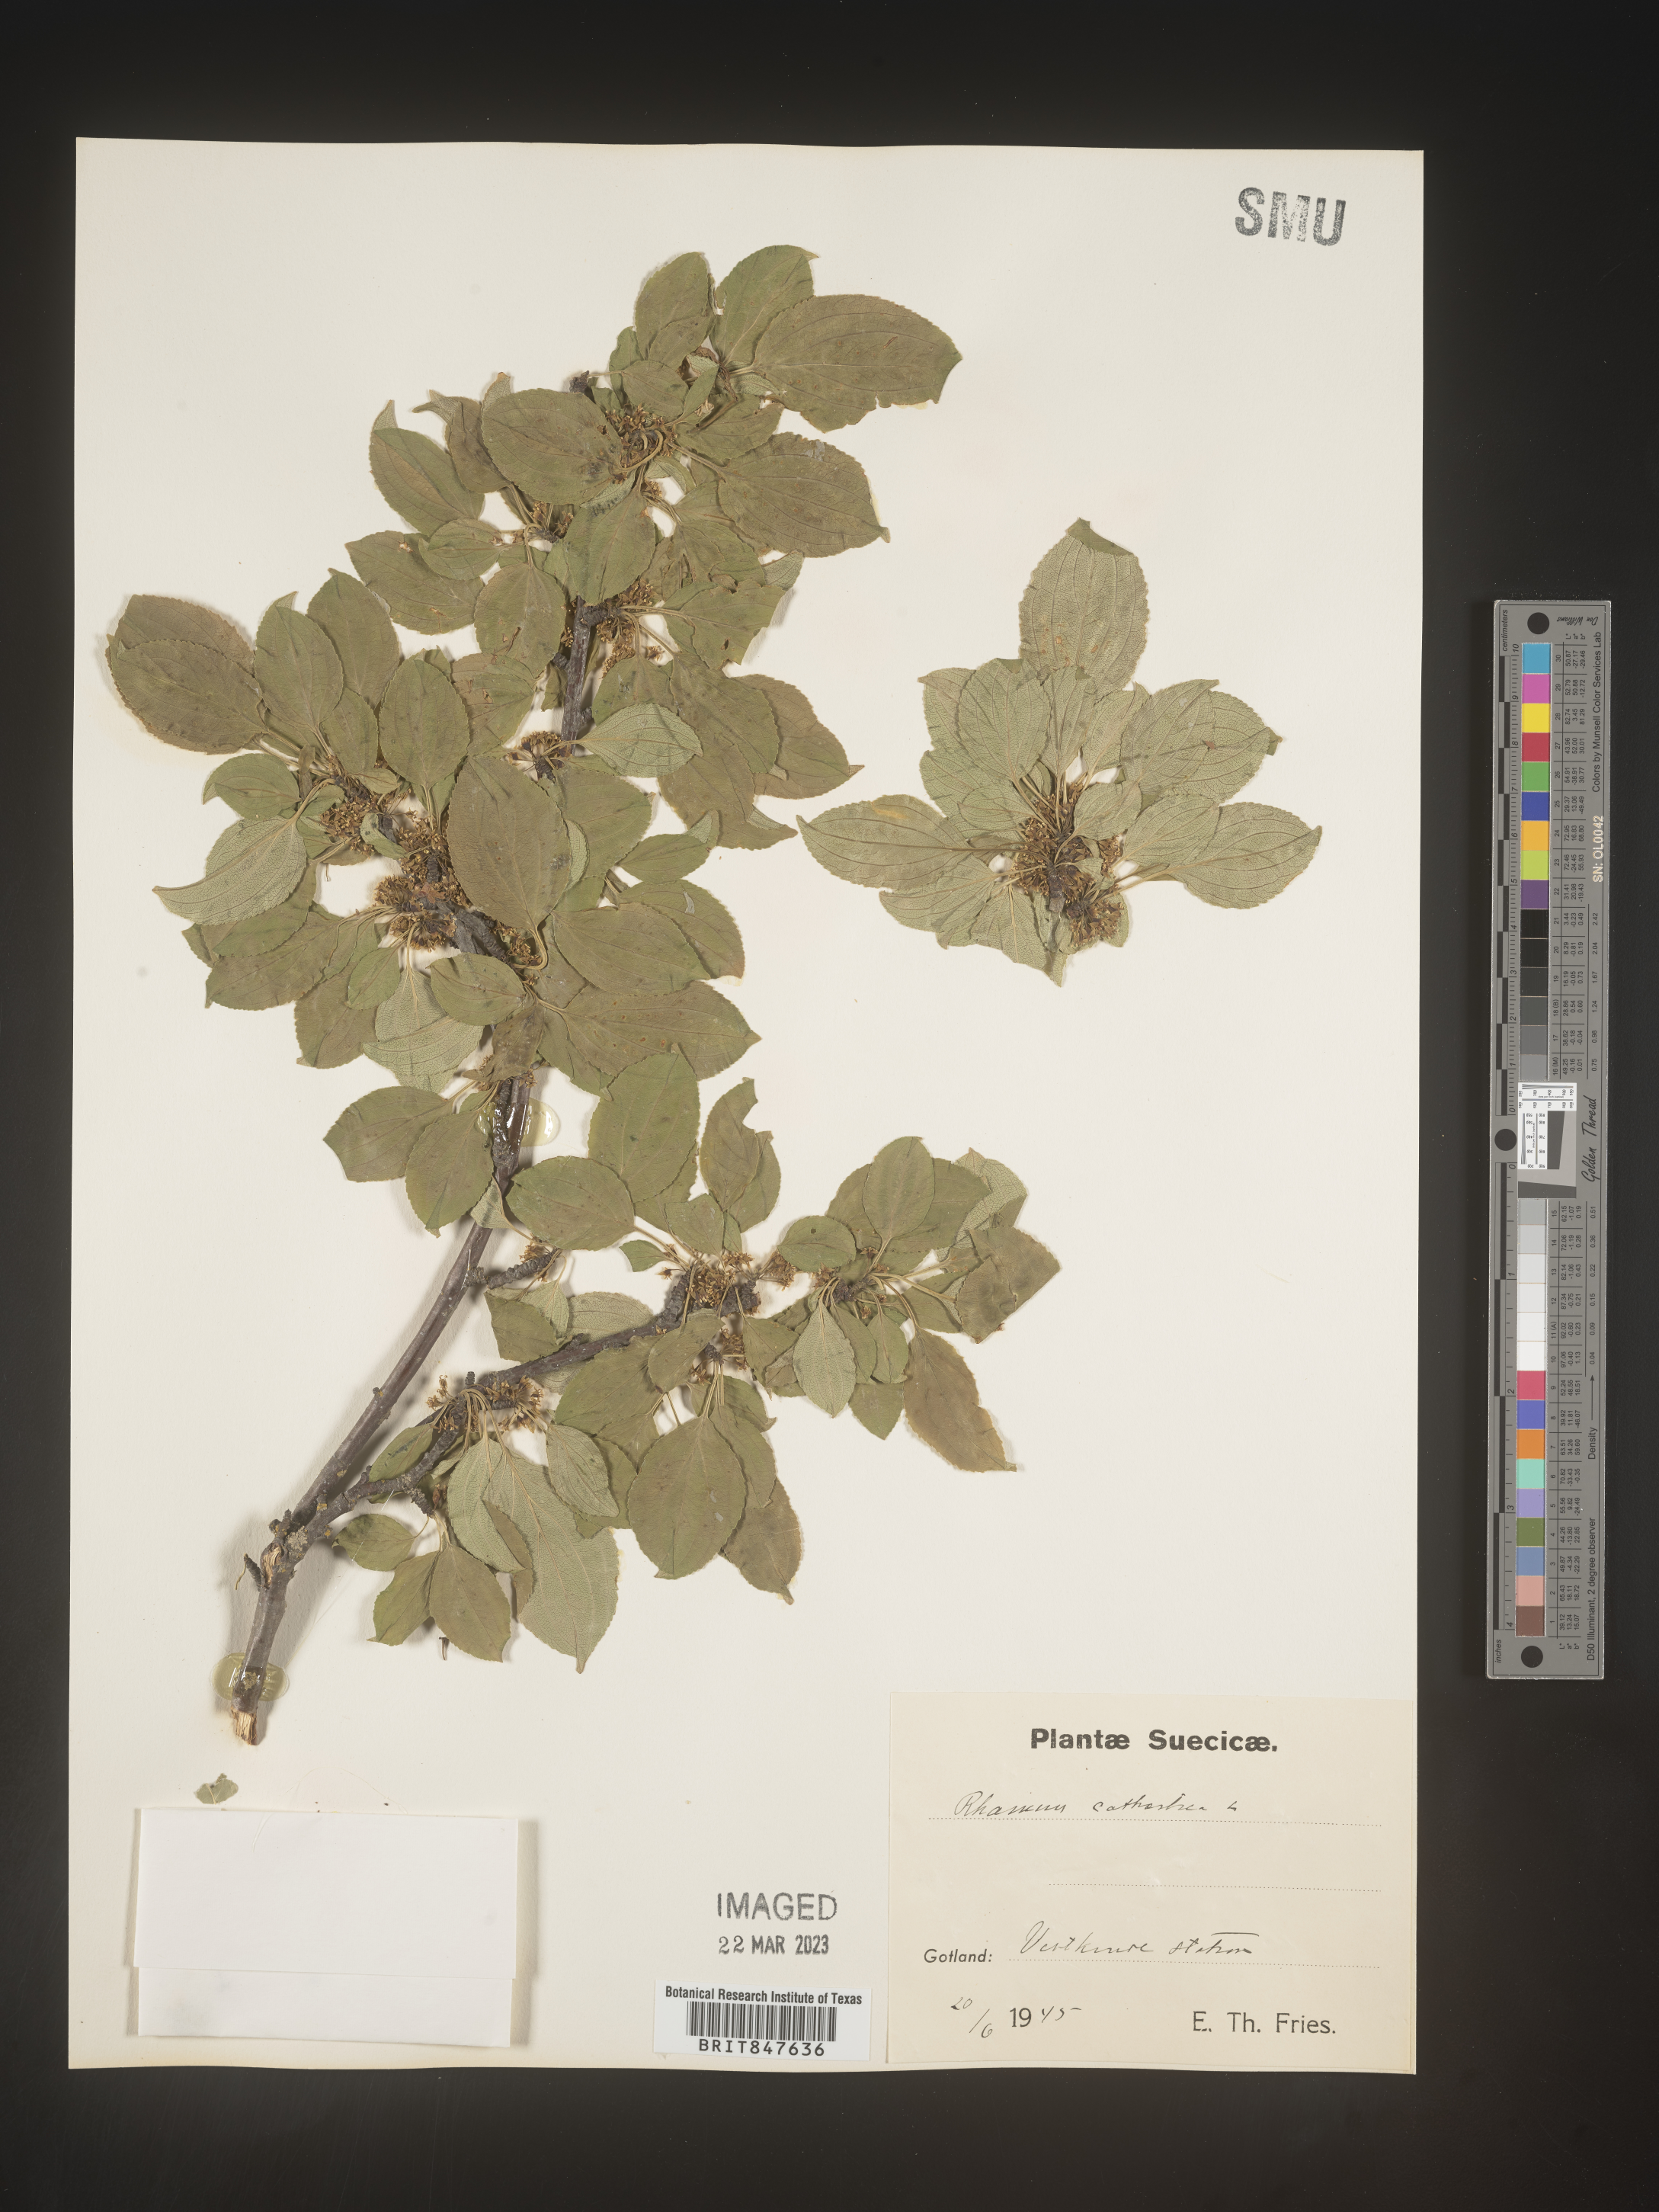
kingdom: Plantae
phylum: Tracheophyta
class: Magnoliopsida
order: Rosales
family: Rhamnaceae
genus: Rhamnus
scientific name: Rhamnus cathartica
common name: Common buckthorn
